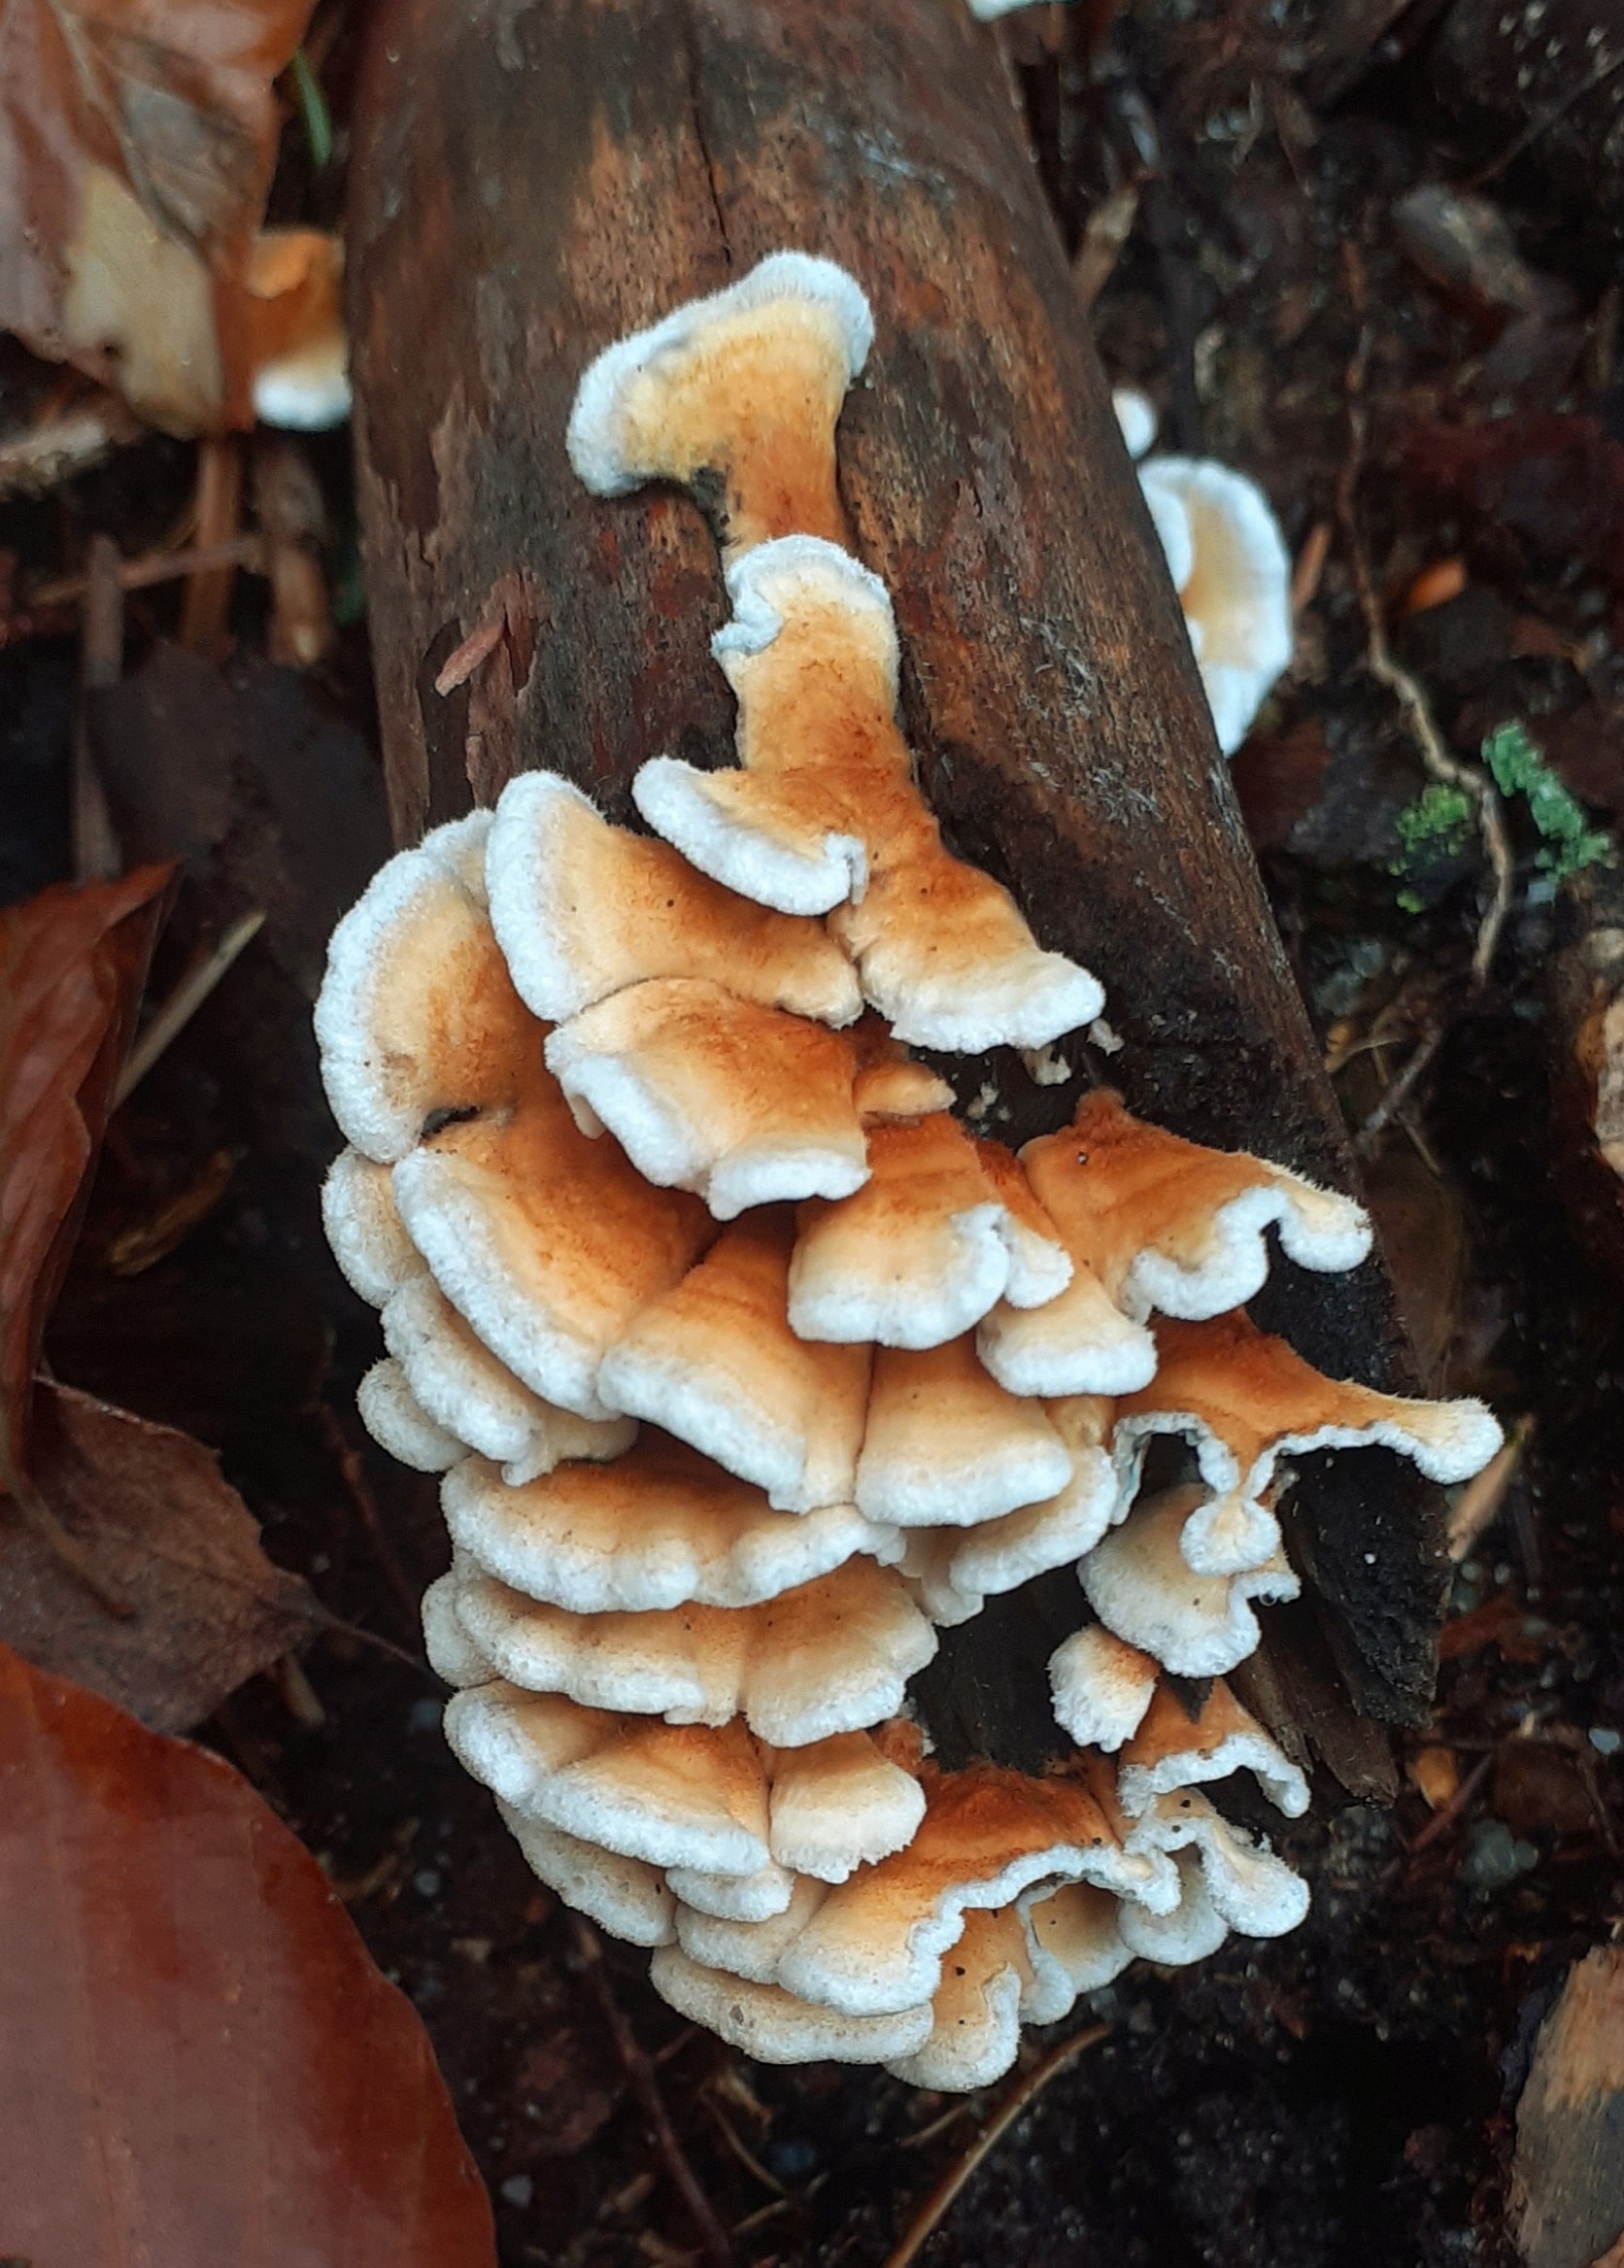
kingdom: Fungi
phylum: Basidiomycota
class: Agaricomycetes
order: Amylocorticiales
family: Amylocorticiaceae
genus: Plicaturopsis
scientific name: Plicaturopsis crispa
